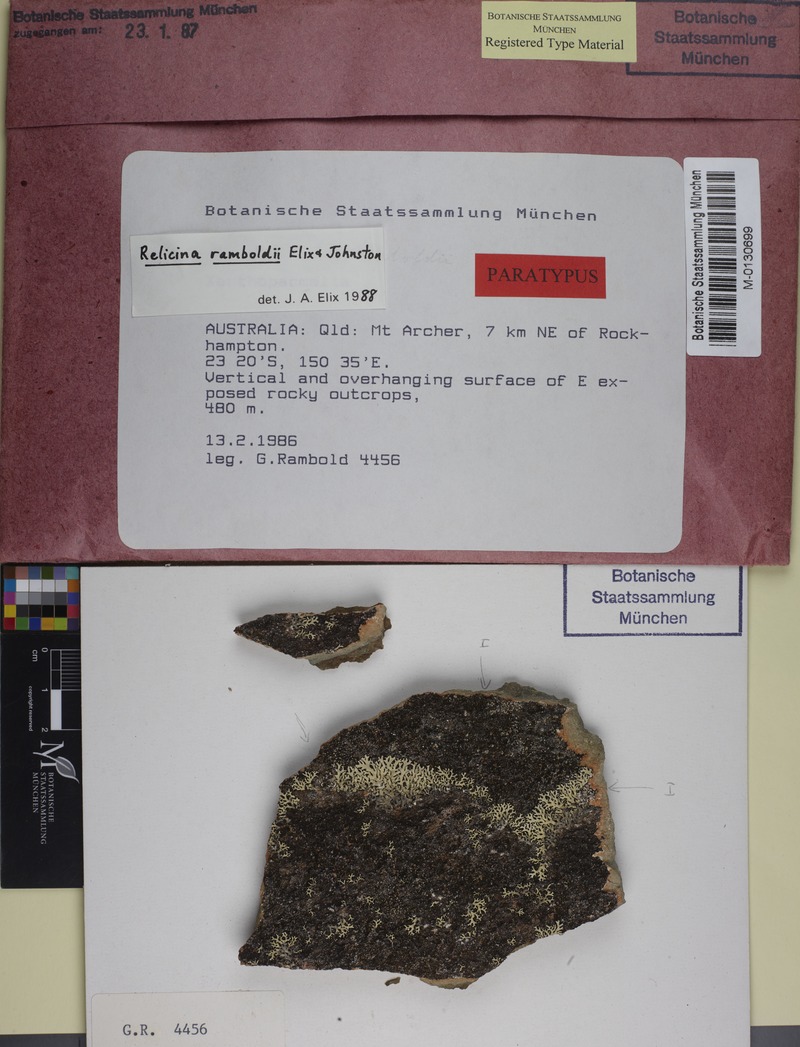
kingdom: Fungi
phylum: Ascomycota
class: Lecanoromycetes
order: Lecanorales
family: Parmeliaceae
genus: Relicina
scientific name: Relicina ramboldii
